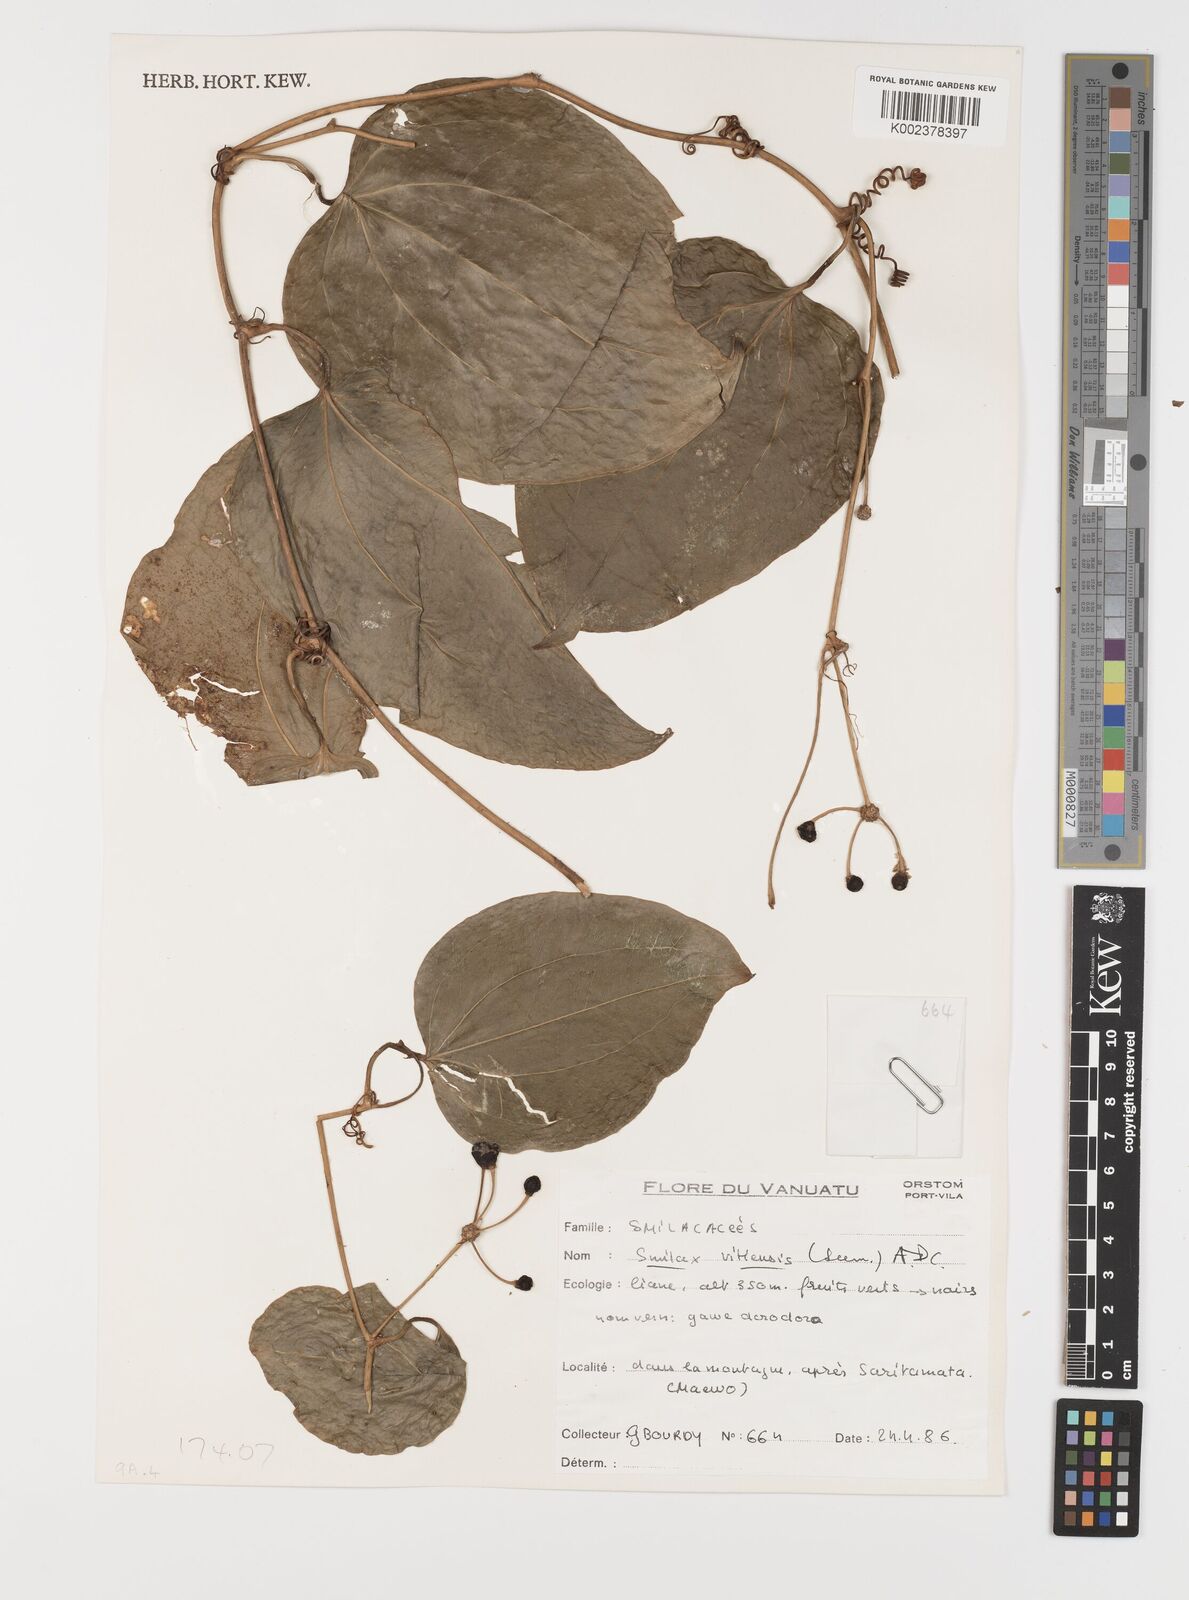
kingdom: Plantae
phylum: Tracheophyta
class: Liliopsida
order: Liliales
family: Smilacaceae
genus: Smilax
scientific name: Smilax vitiensis
